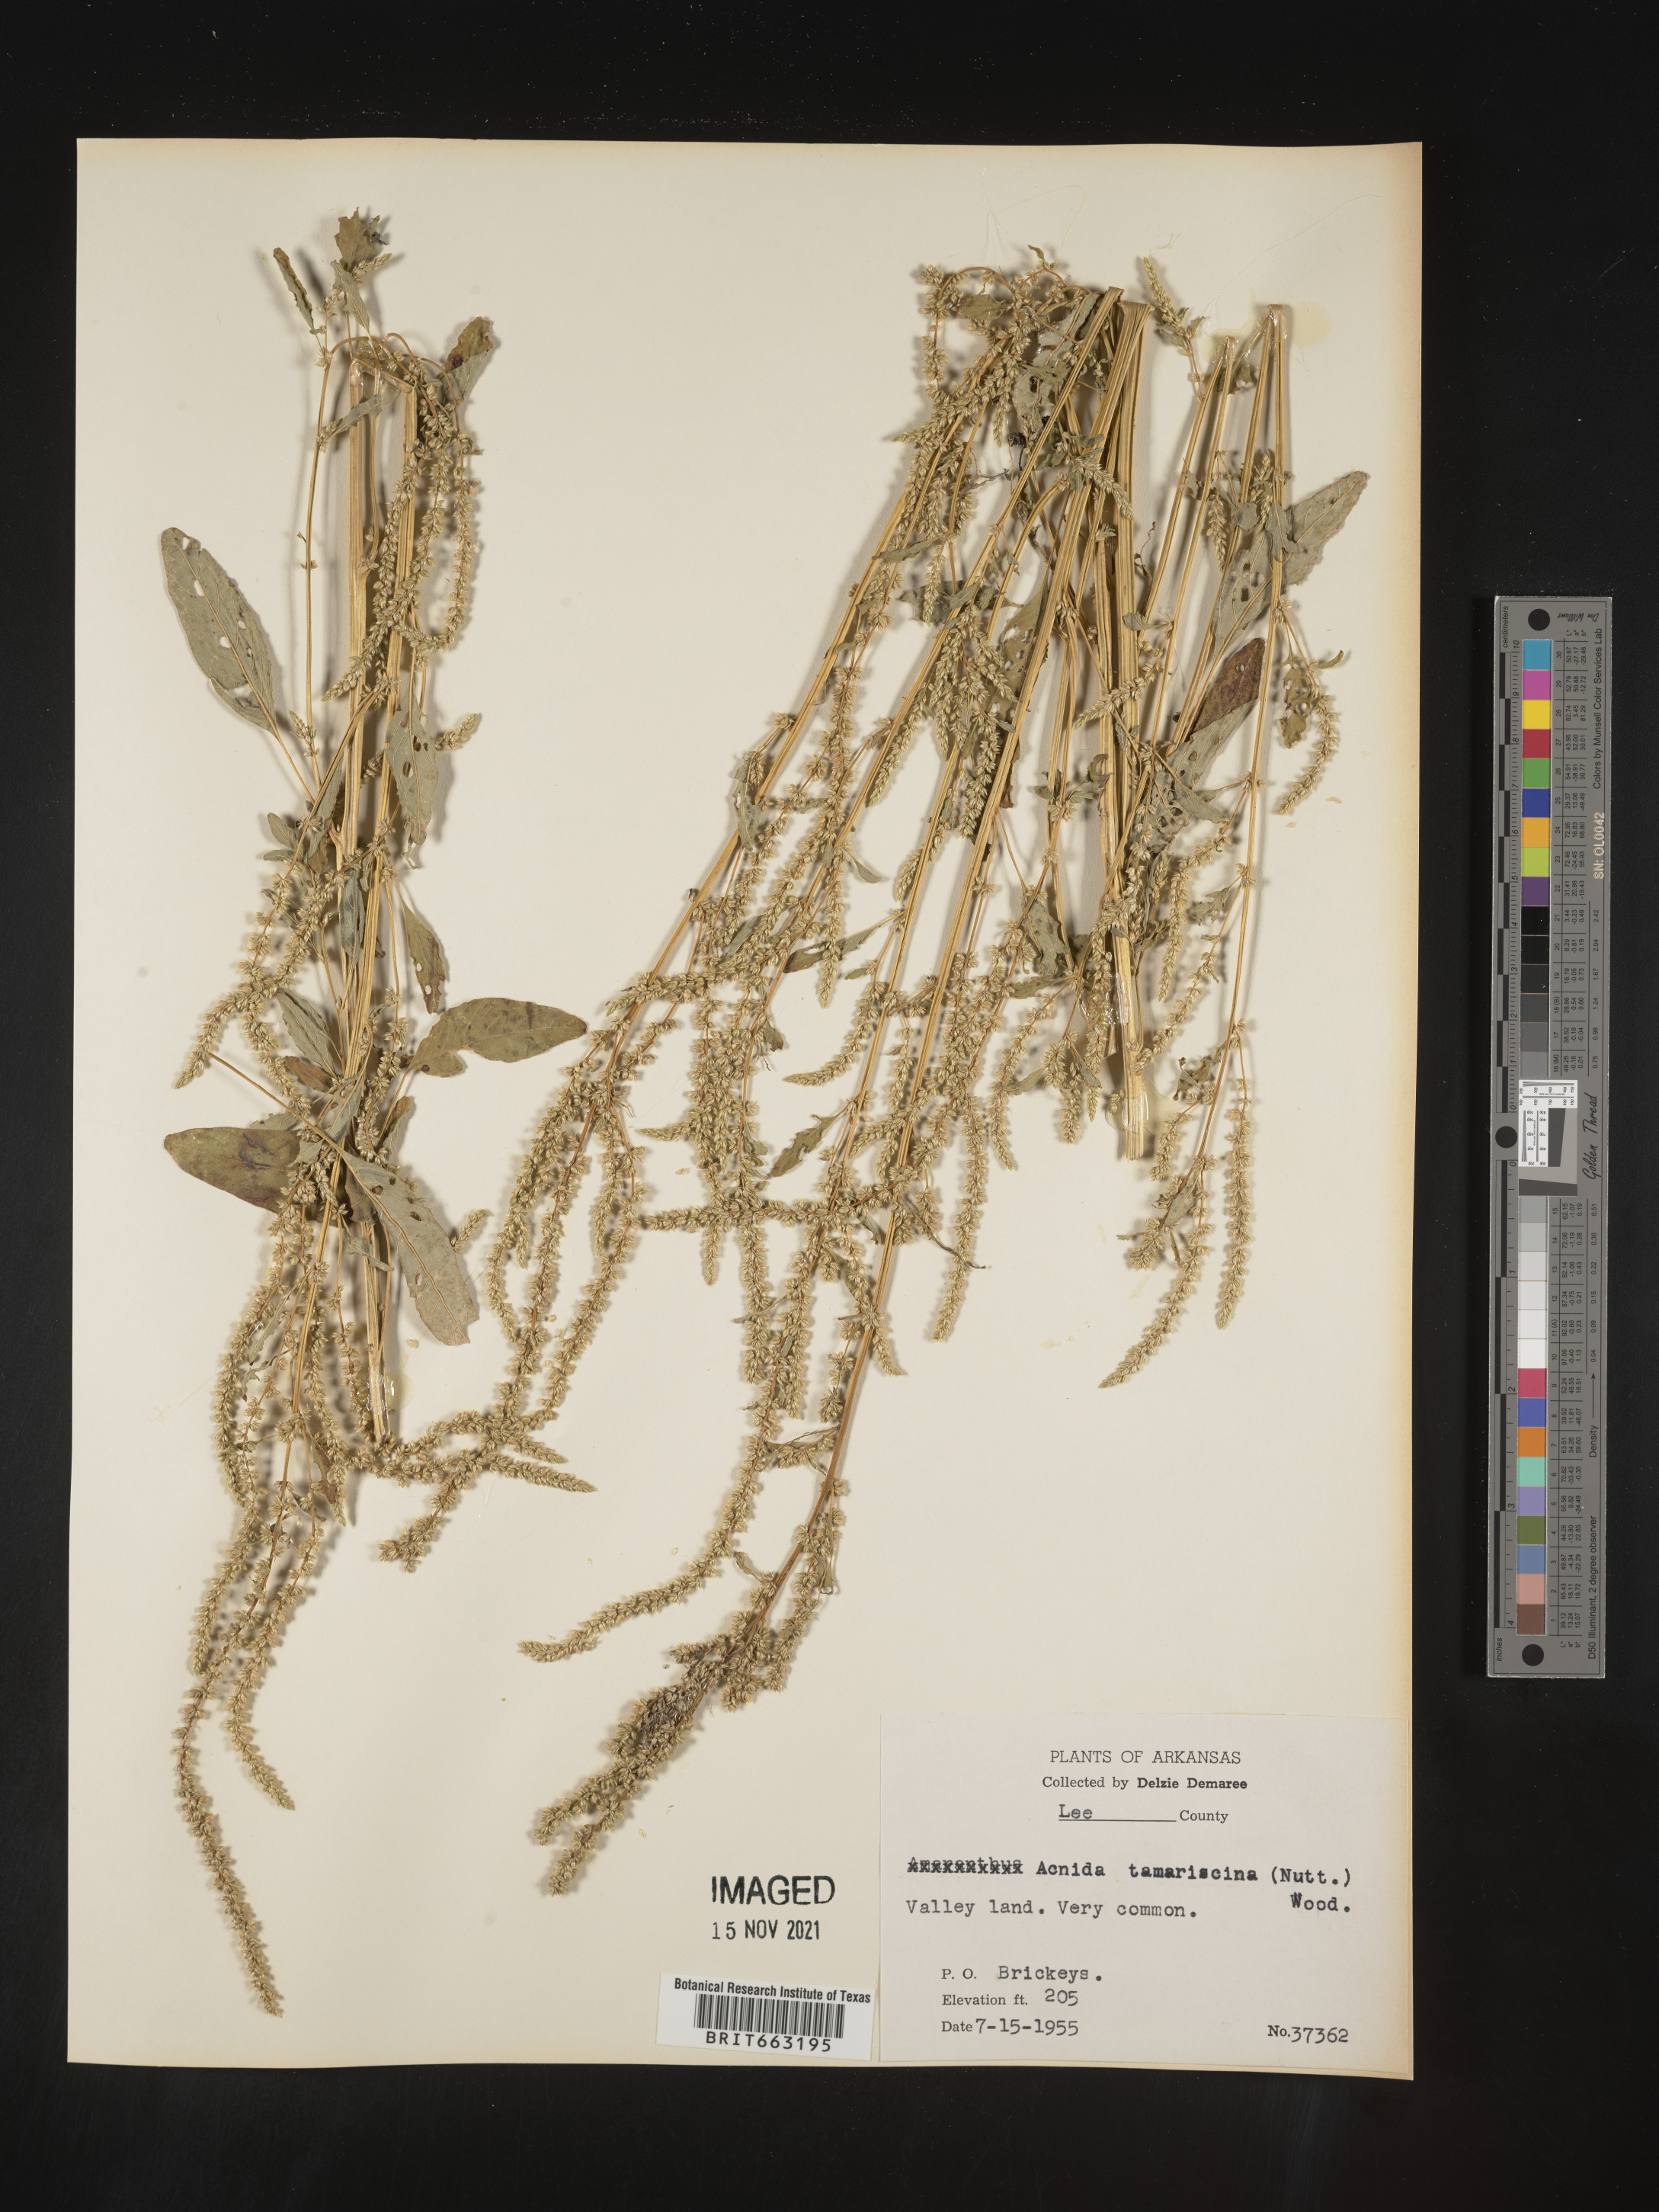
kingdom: Plantae
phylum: Tracheophyta
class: Magnoliopsida
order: Caryophyllales
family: Amaranthaceae
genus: Amaranthus
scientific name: Amaranthus tamariscinus
